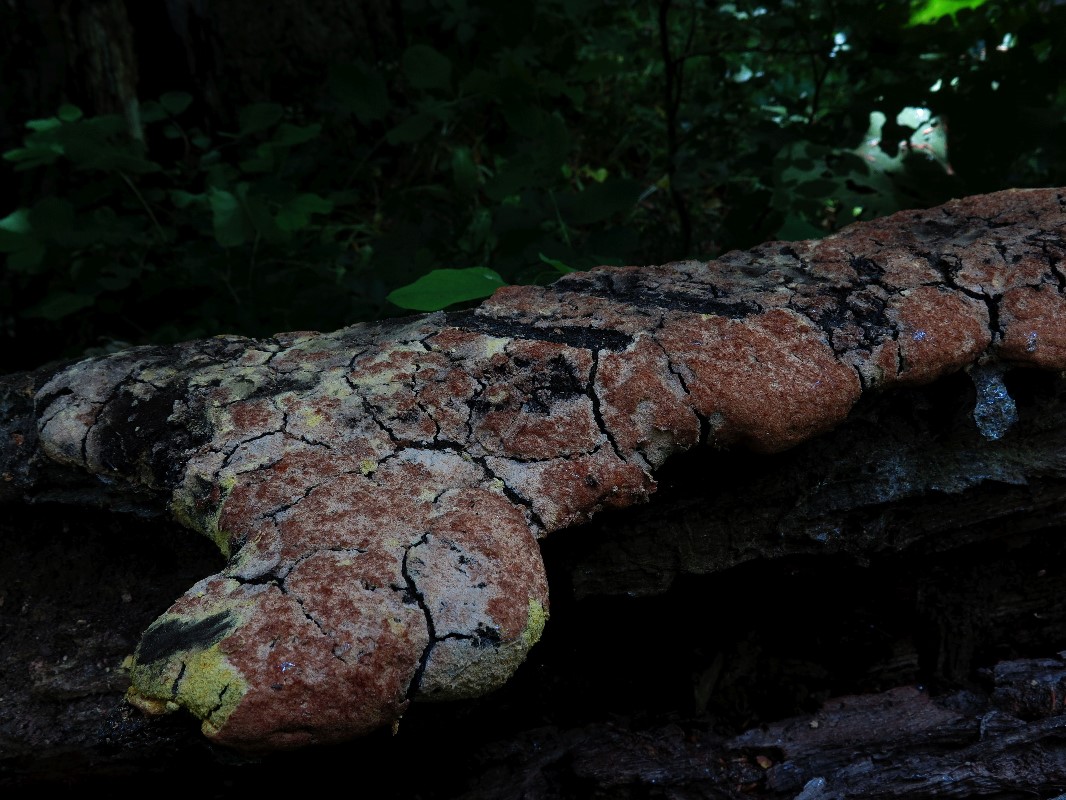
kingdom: Protozoa
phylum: Mycetozoa
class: Myxomycetes
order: Physarales
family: Physaraceae
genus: Fuligo
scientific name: Fuligo septica
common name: Dog vomit slime mold
